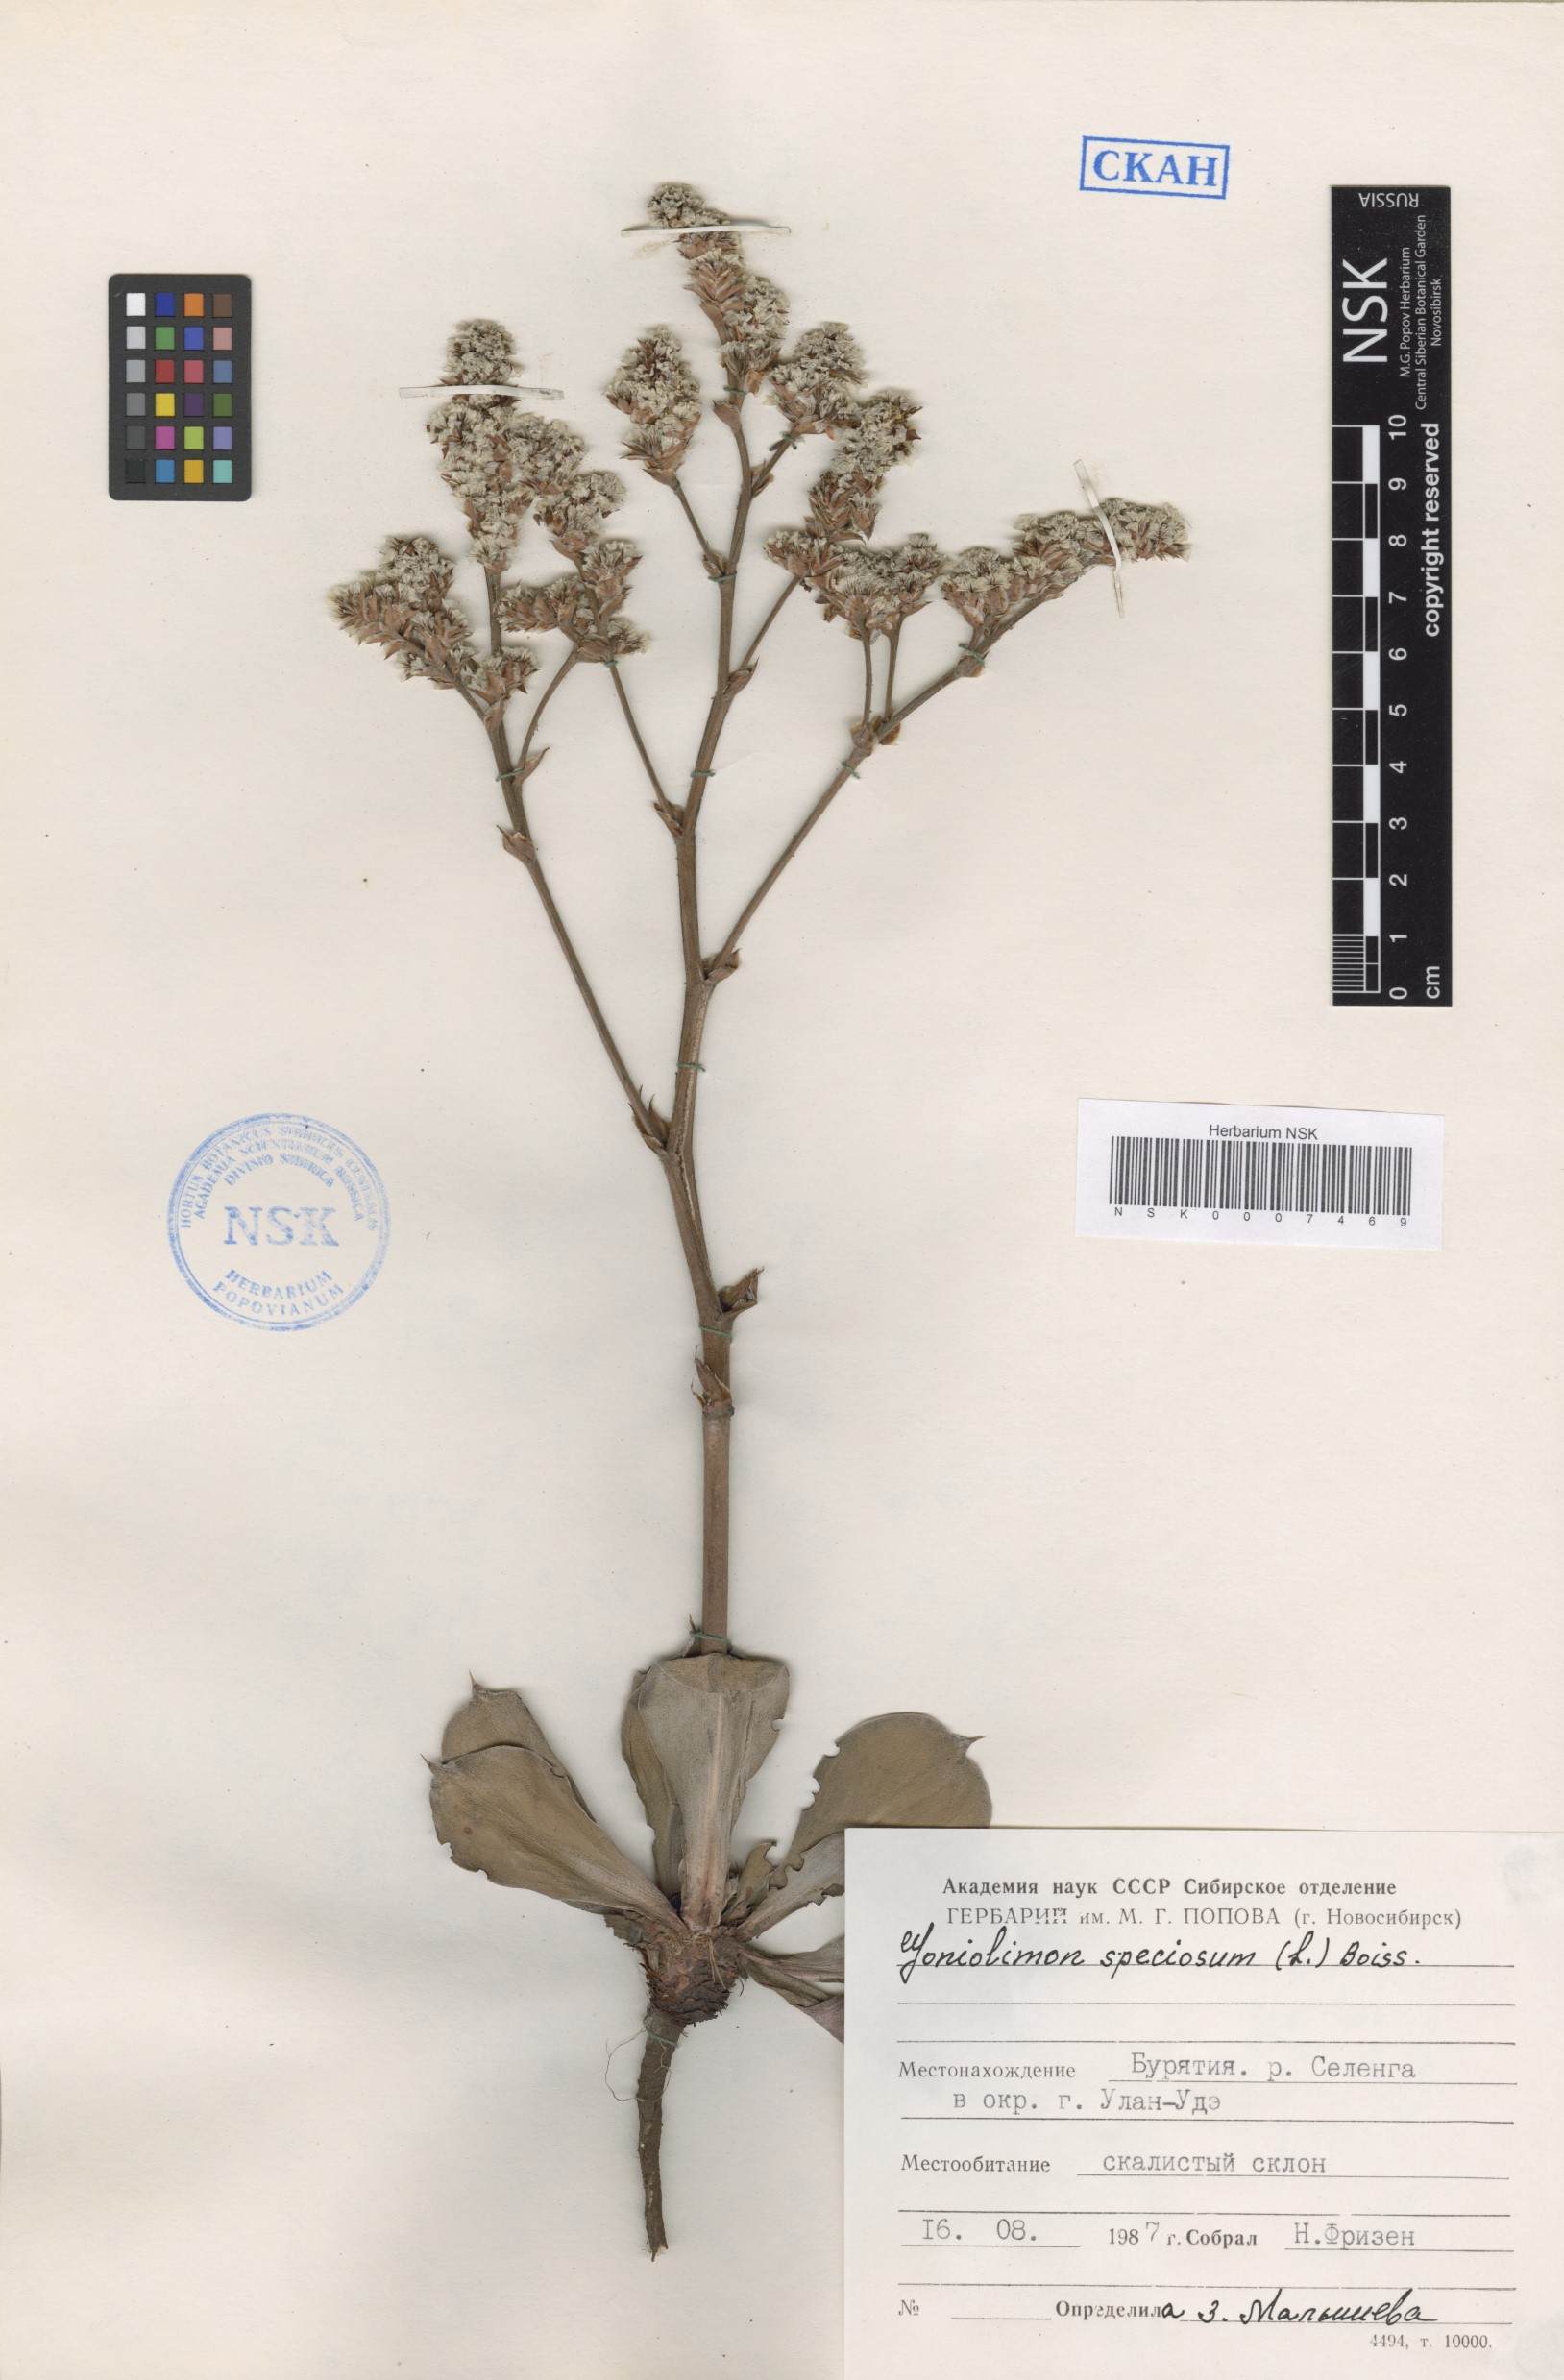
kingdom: Plantae
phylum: Tracheophyta
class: Magnoliopsida
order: Caryophyllales
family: Plumbaginaceae
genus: Goniolimon
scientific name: Goniolimon speciosum
